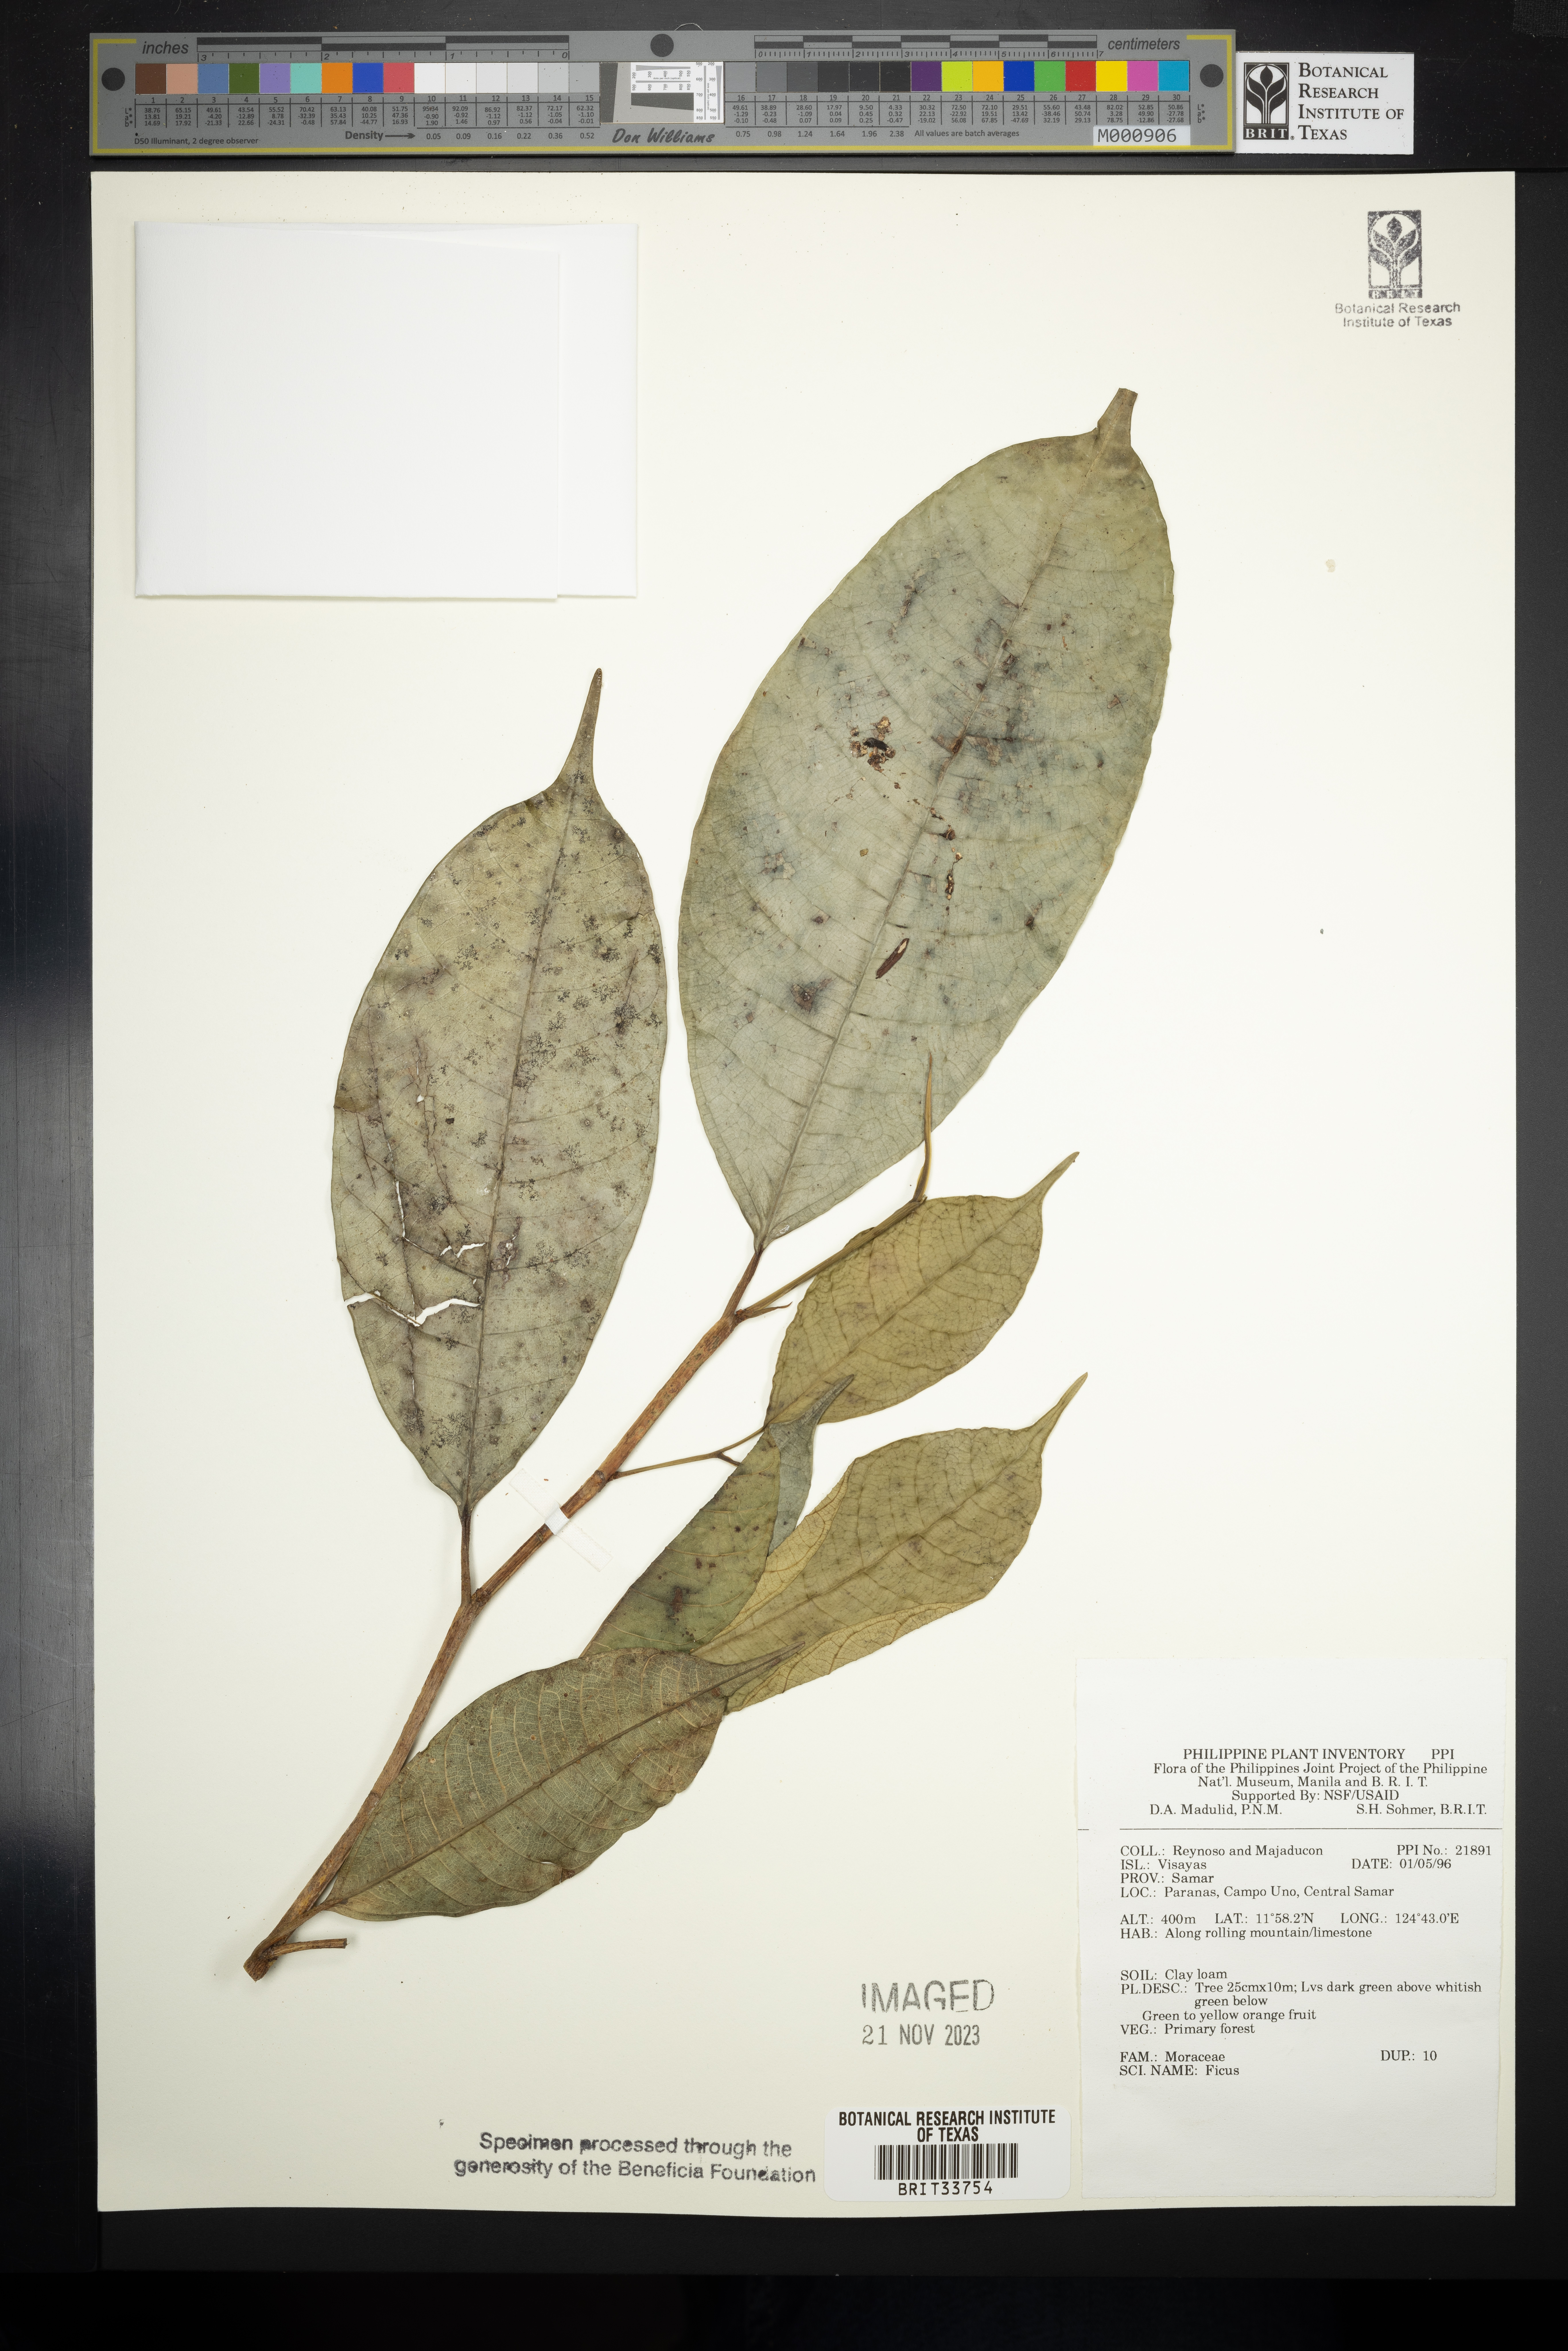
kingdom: Plantae
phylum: Tracheophyta
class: Magnoliopsida
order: Rosales
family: Moraceae
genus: Ficus
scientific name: Ficus
